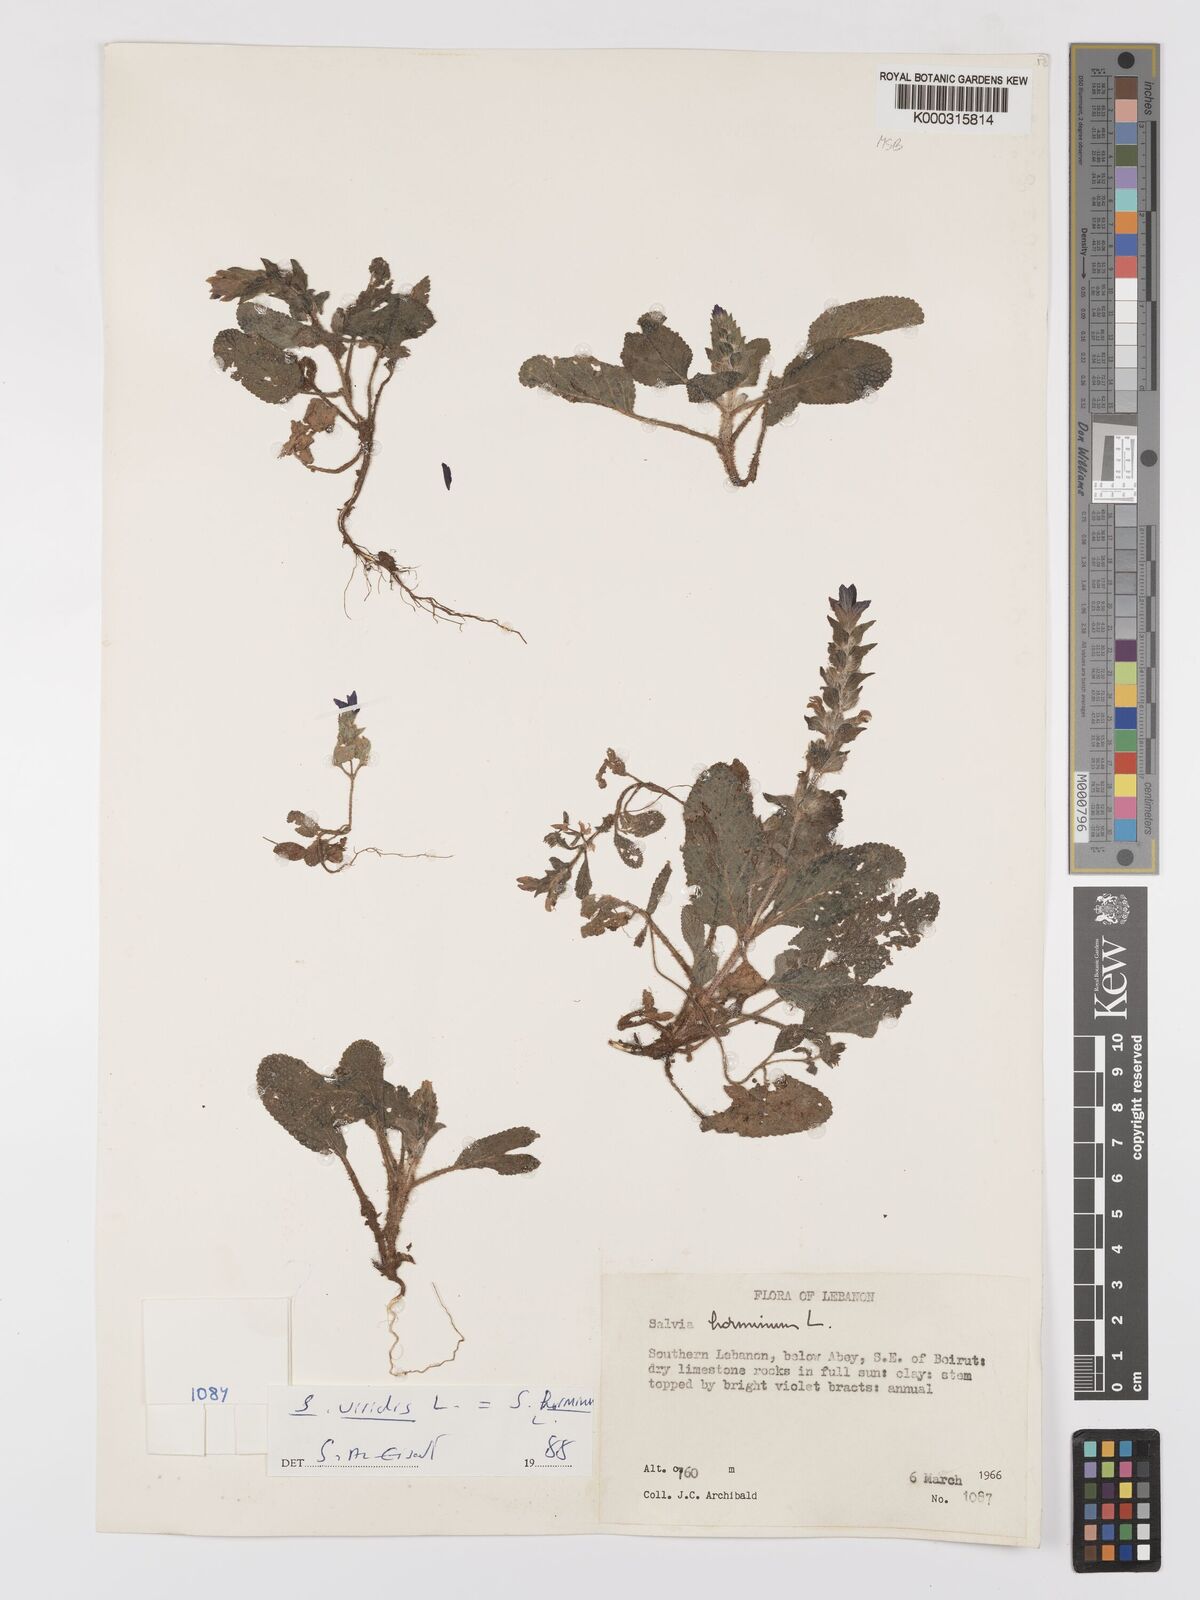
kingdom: Plantae
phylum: Tracheophyta
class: Magnoliopsida
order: Lamiales
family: Lamiaceae
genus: Salvia
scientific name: Salvia viridis
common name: Annual clary
